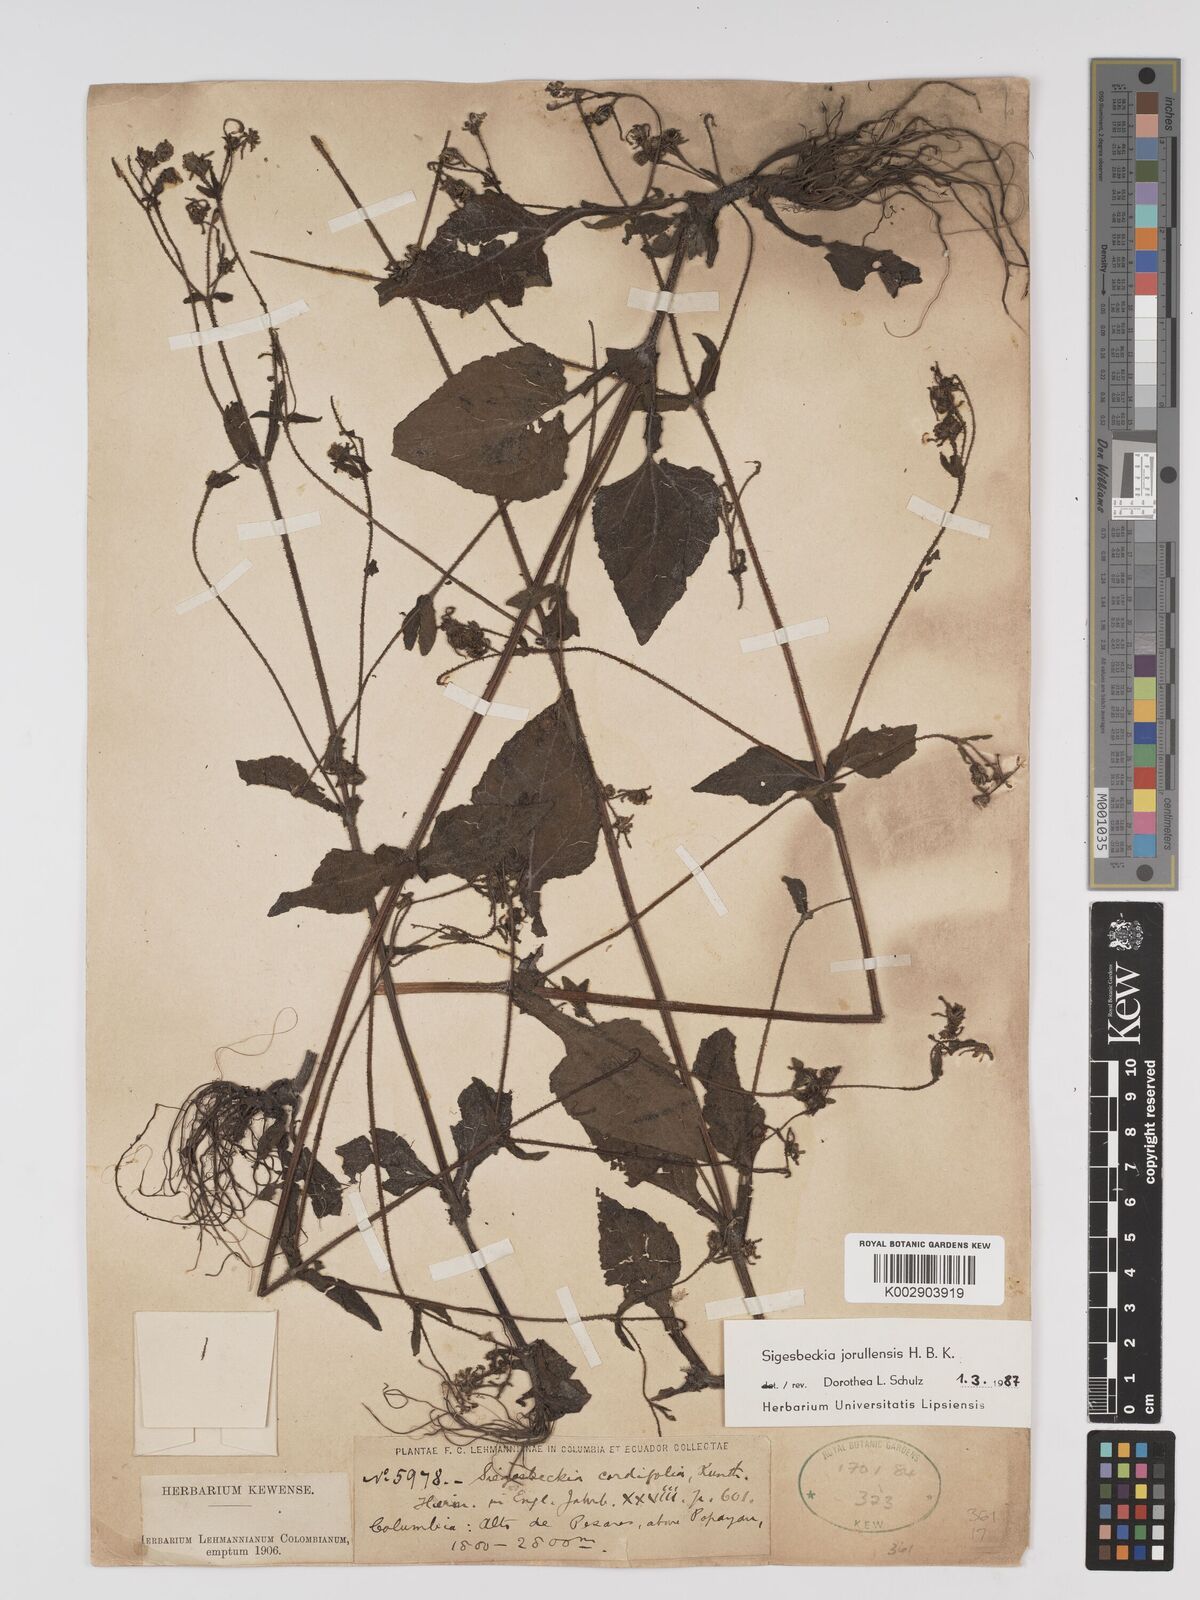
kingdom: Plantae
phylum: Tracheophyta
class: Magnoliopsida
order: Asterales
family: Asteraceae
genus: Sigesbeckia
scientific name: Sigesbeckia jorullensis
